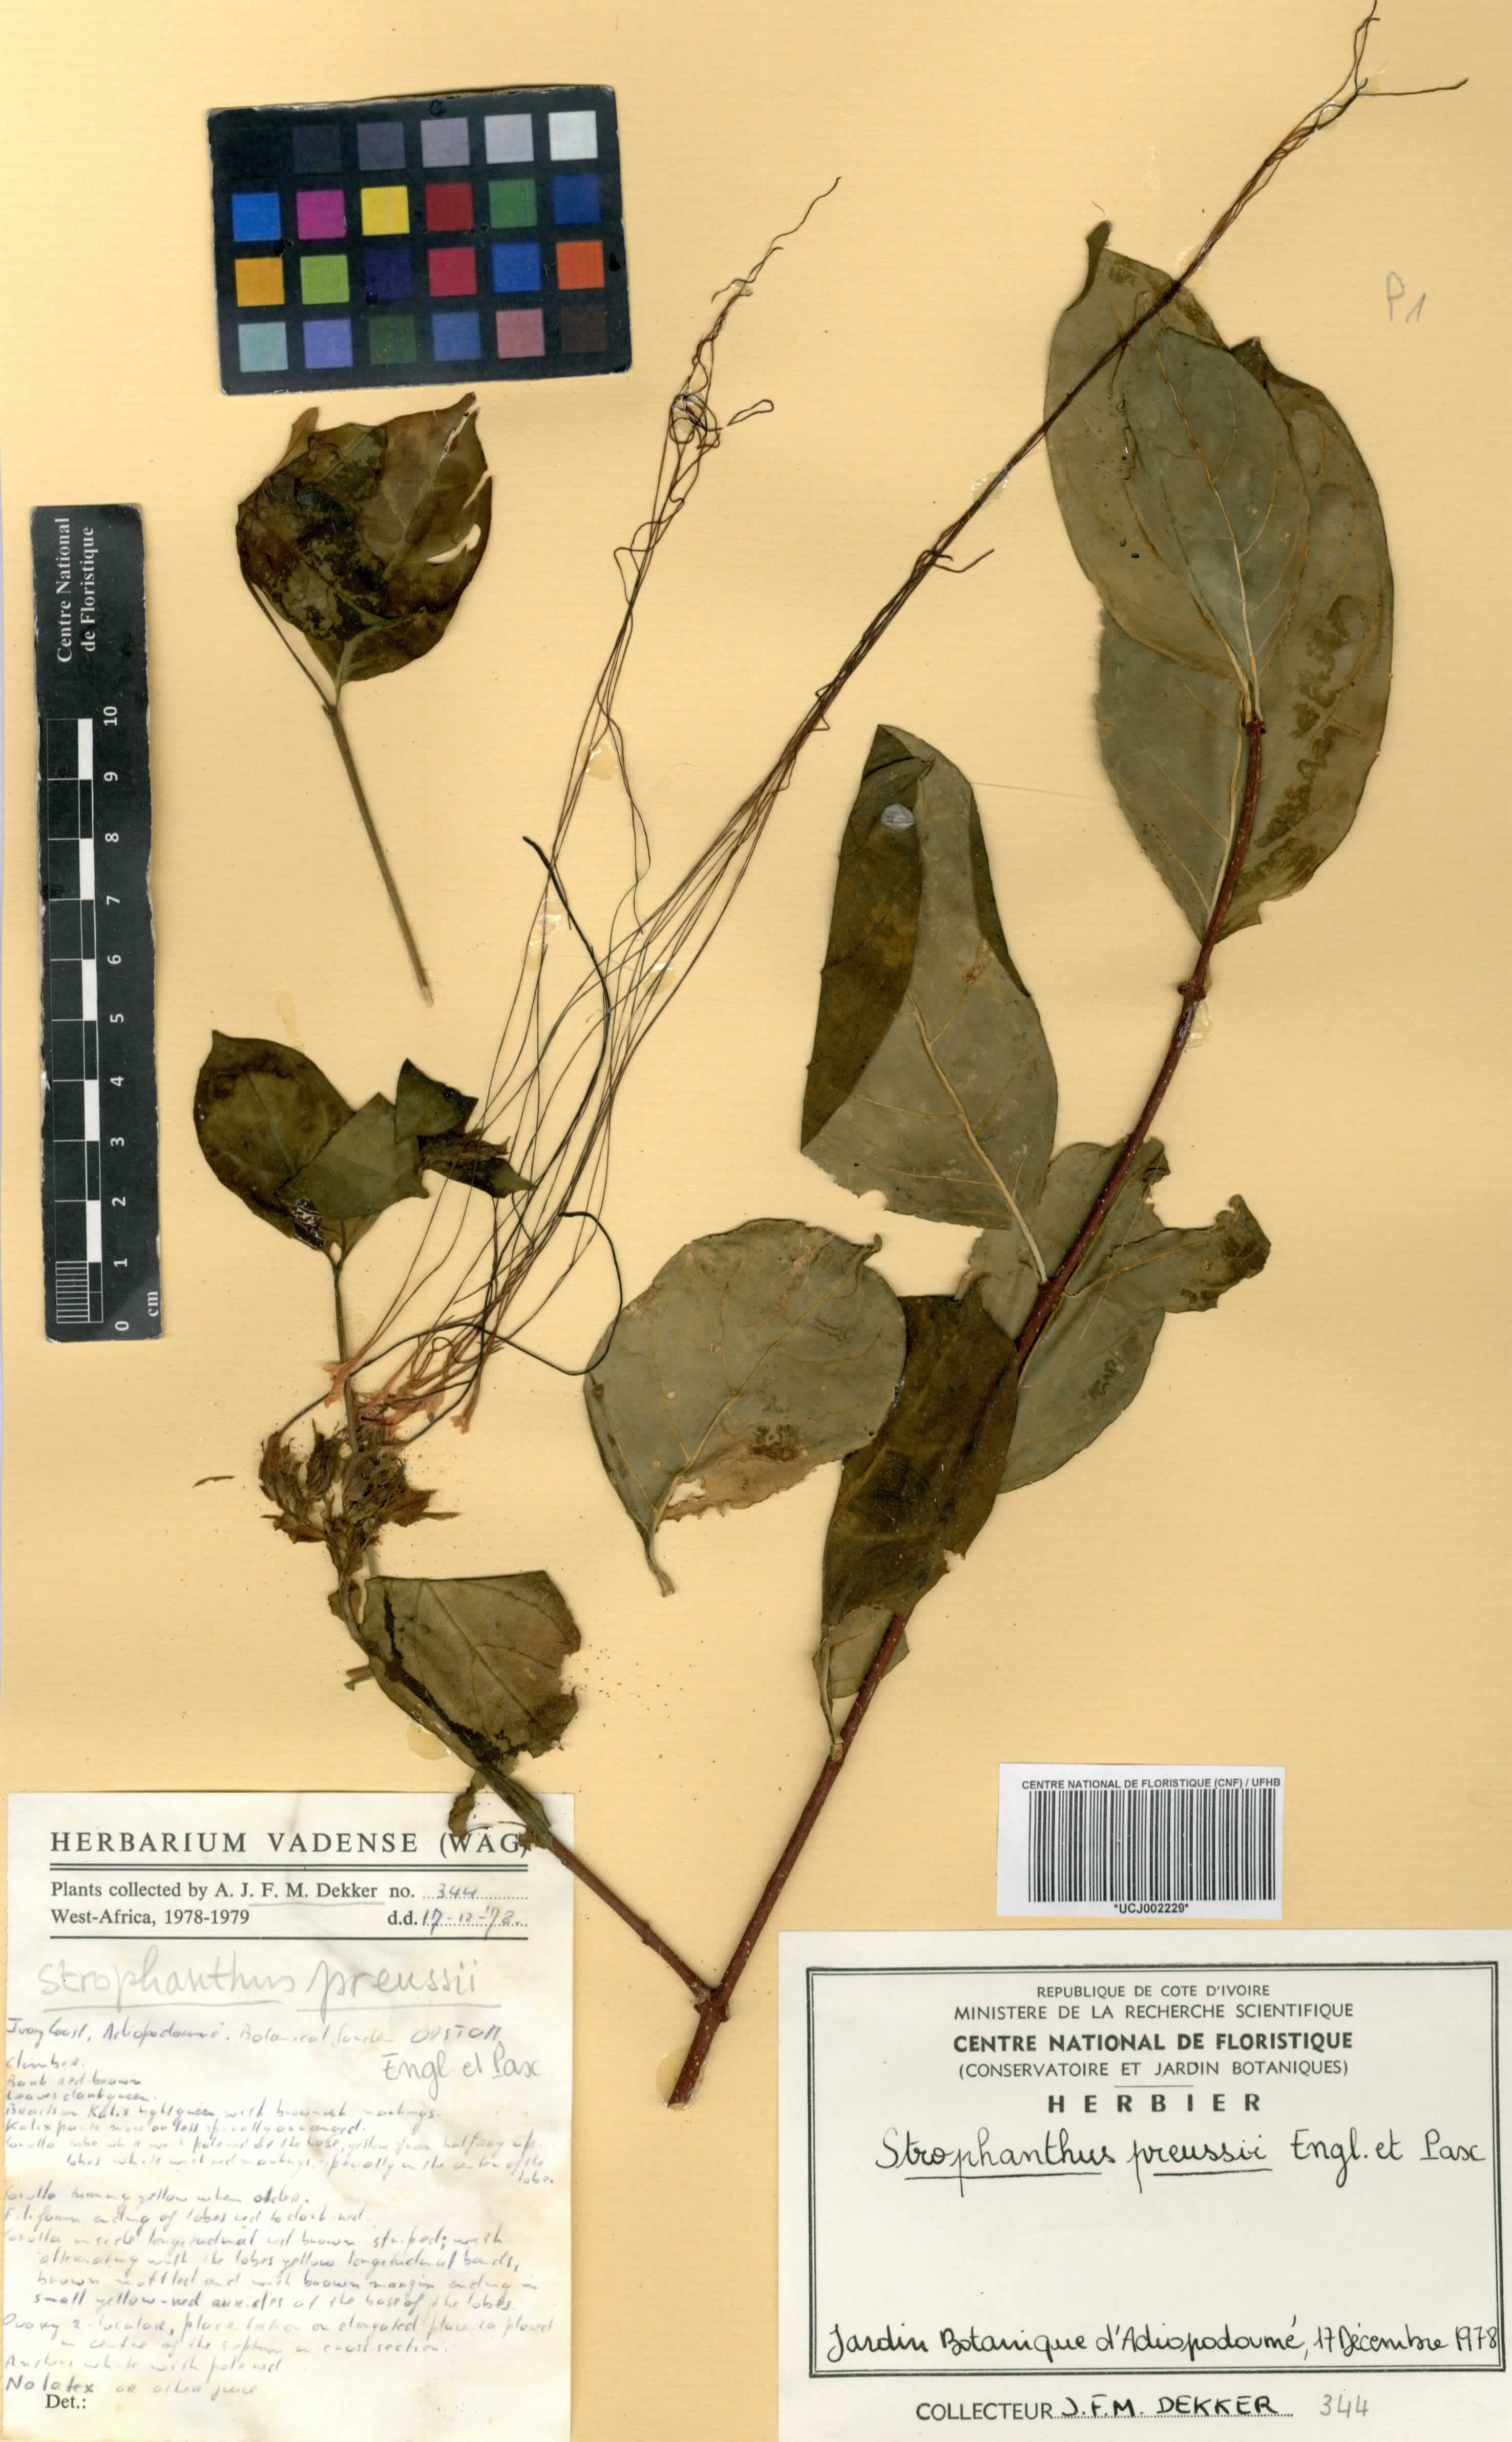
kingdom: Plantae
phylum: Tracheophyta
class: Magnoliopsida
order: Gentianales
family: Apocynaceae
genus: Strophanthus
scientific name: Strophanthus preussii
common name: Medisa-flower
